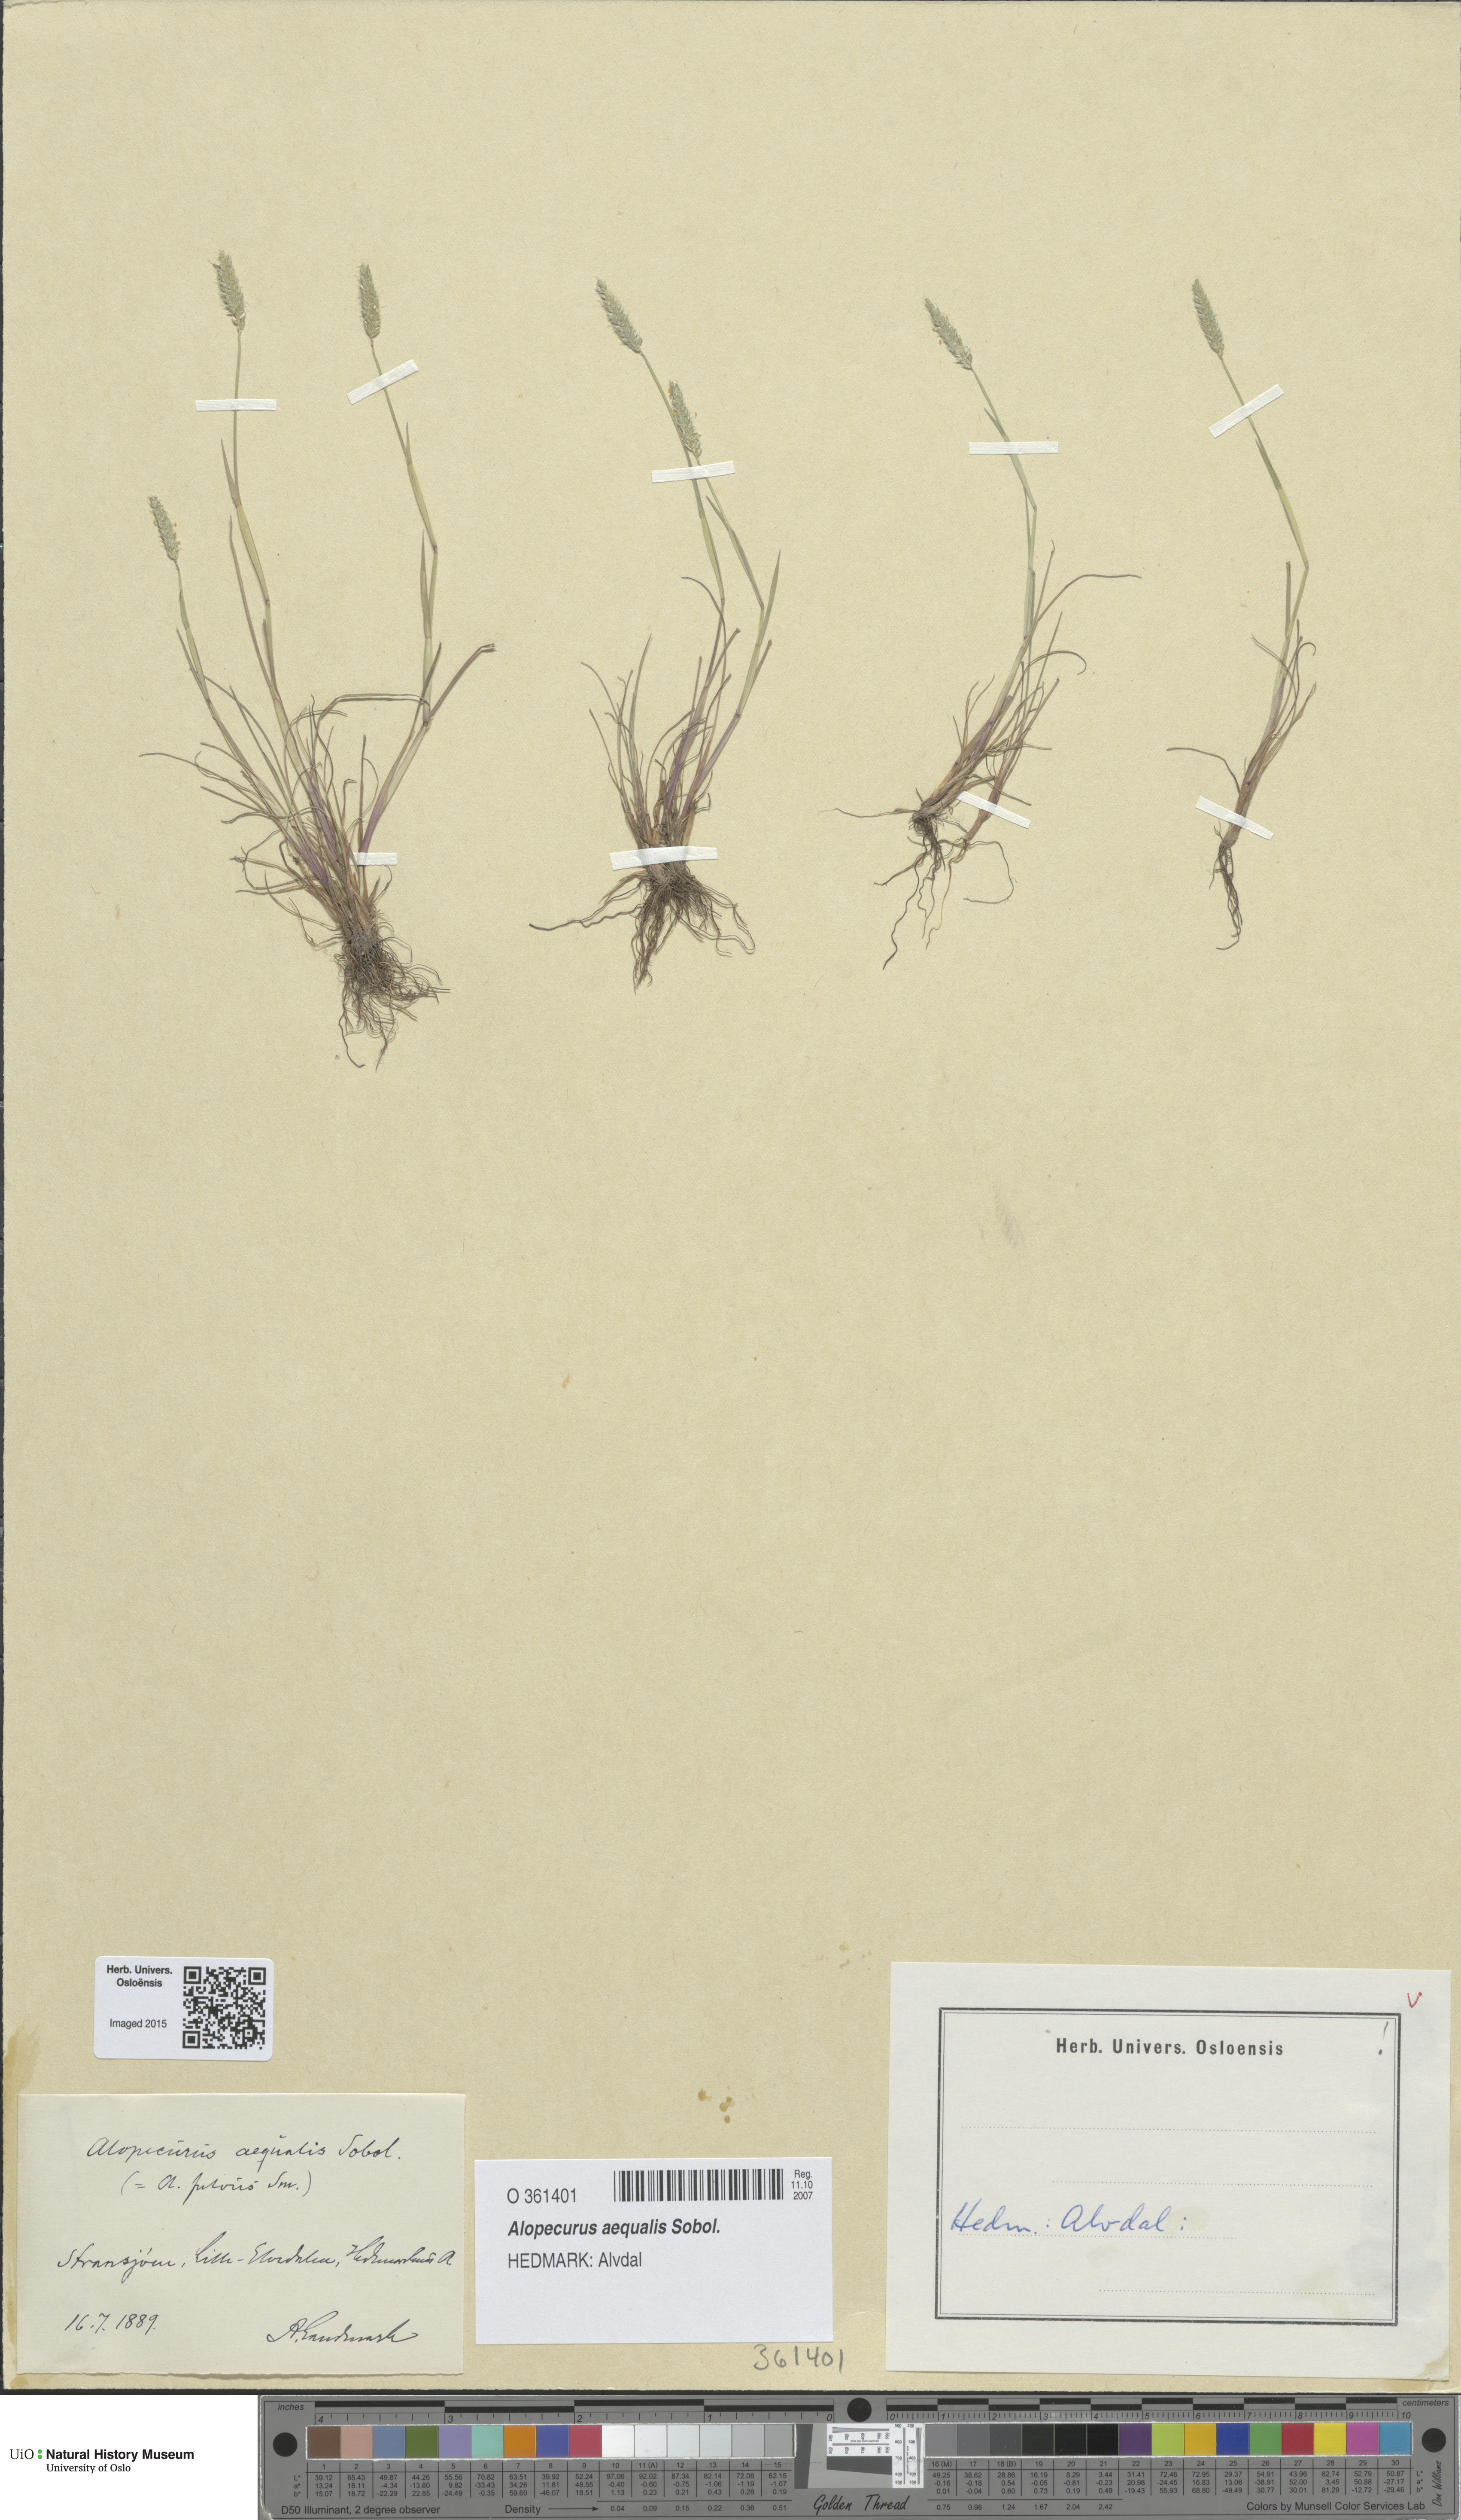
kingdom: Plantae
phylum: Tracheophyta
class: Liliopsida
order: Poales
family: Poaceae
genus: Alopecurus
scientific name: Alopecurus aequalis
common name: Orange foxtail
